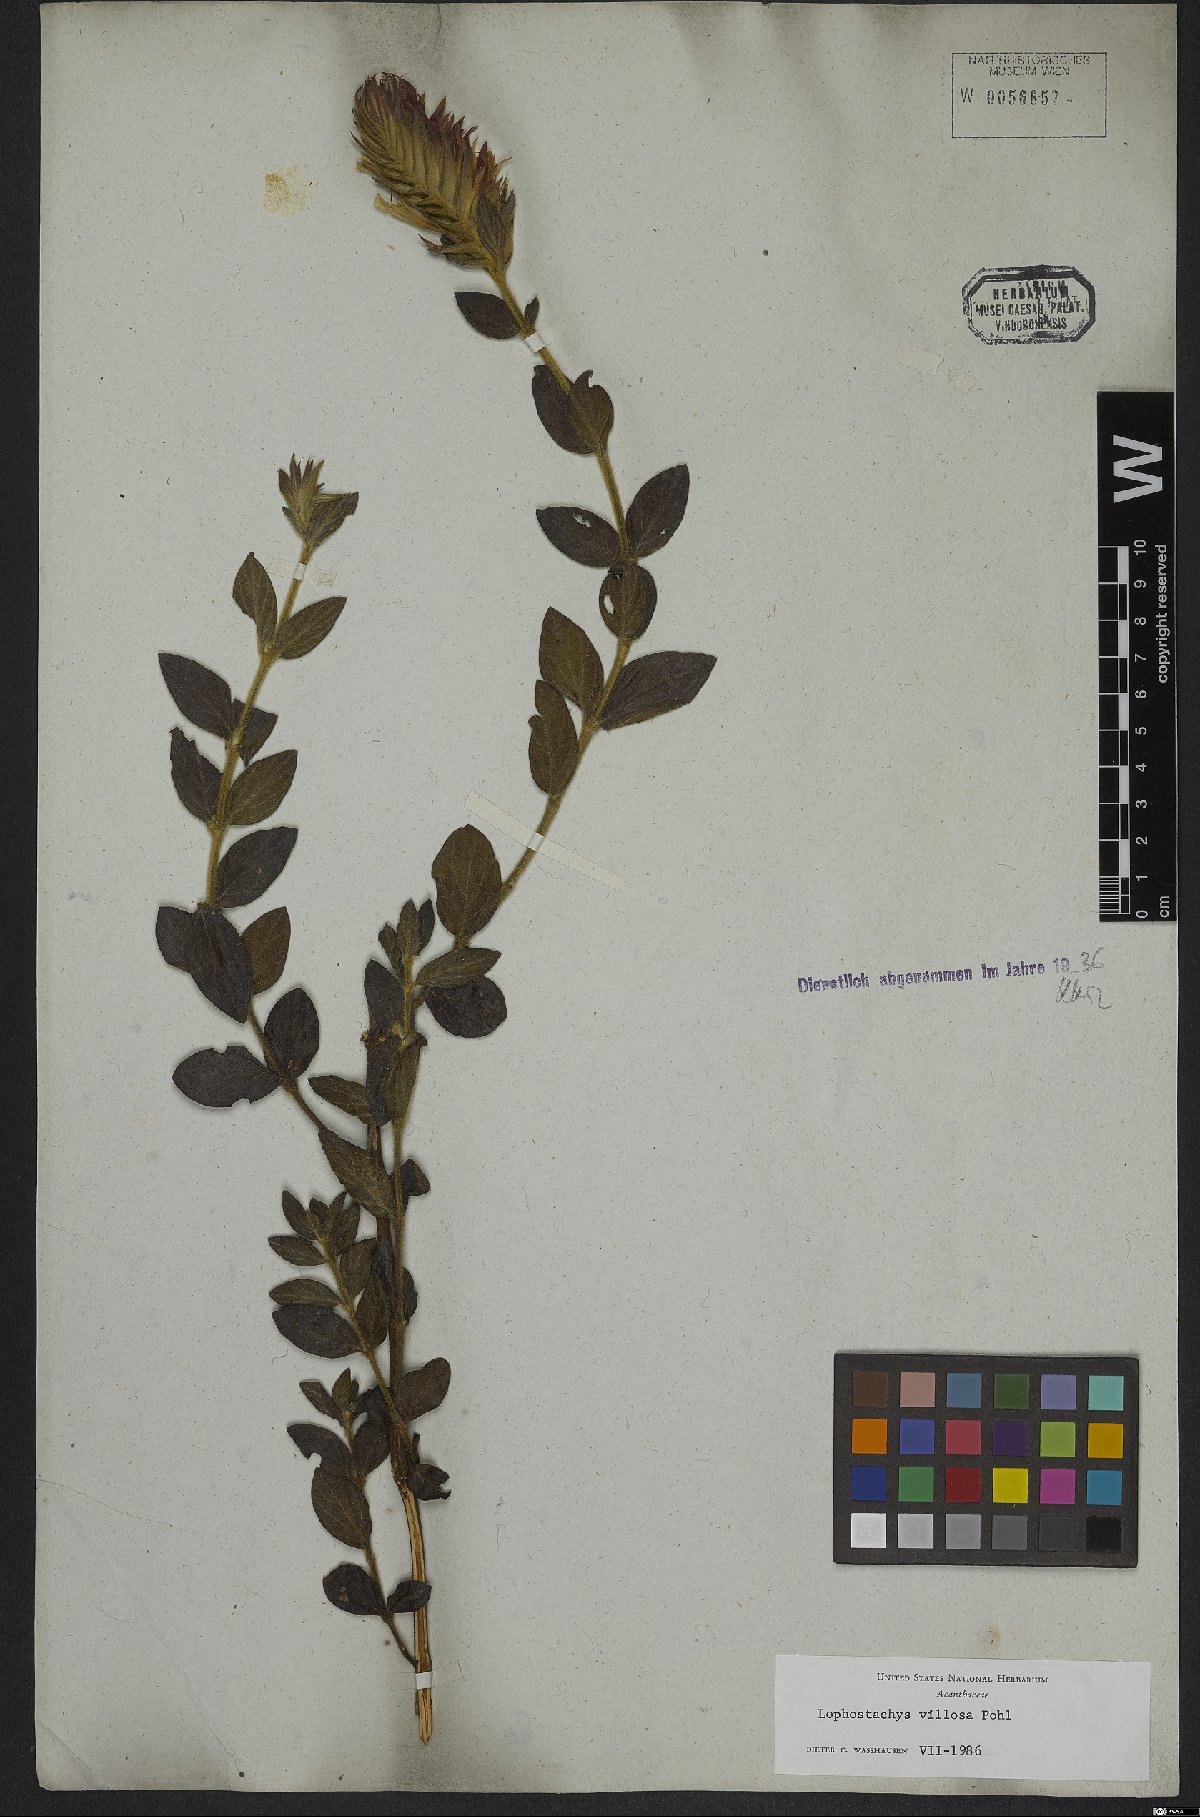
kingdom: Plantae
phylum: Tracheophyta
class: Magnoliopsida
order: Lamiales
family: Acanthaceae
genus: Lepidagathis
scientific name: Lepidagathis montana
